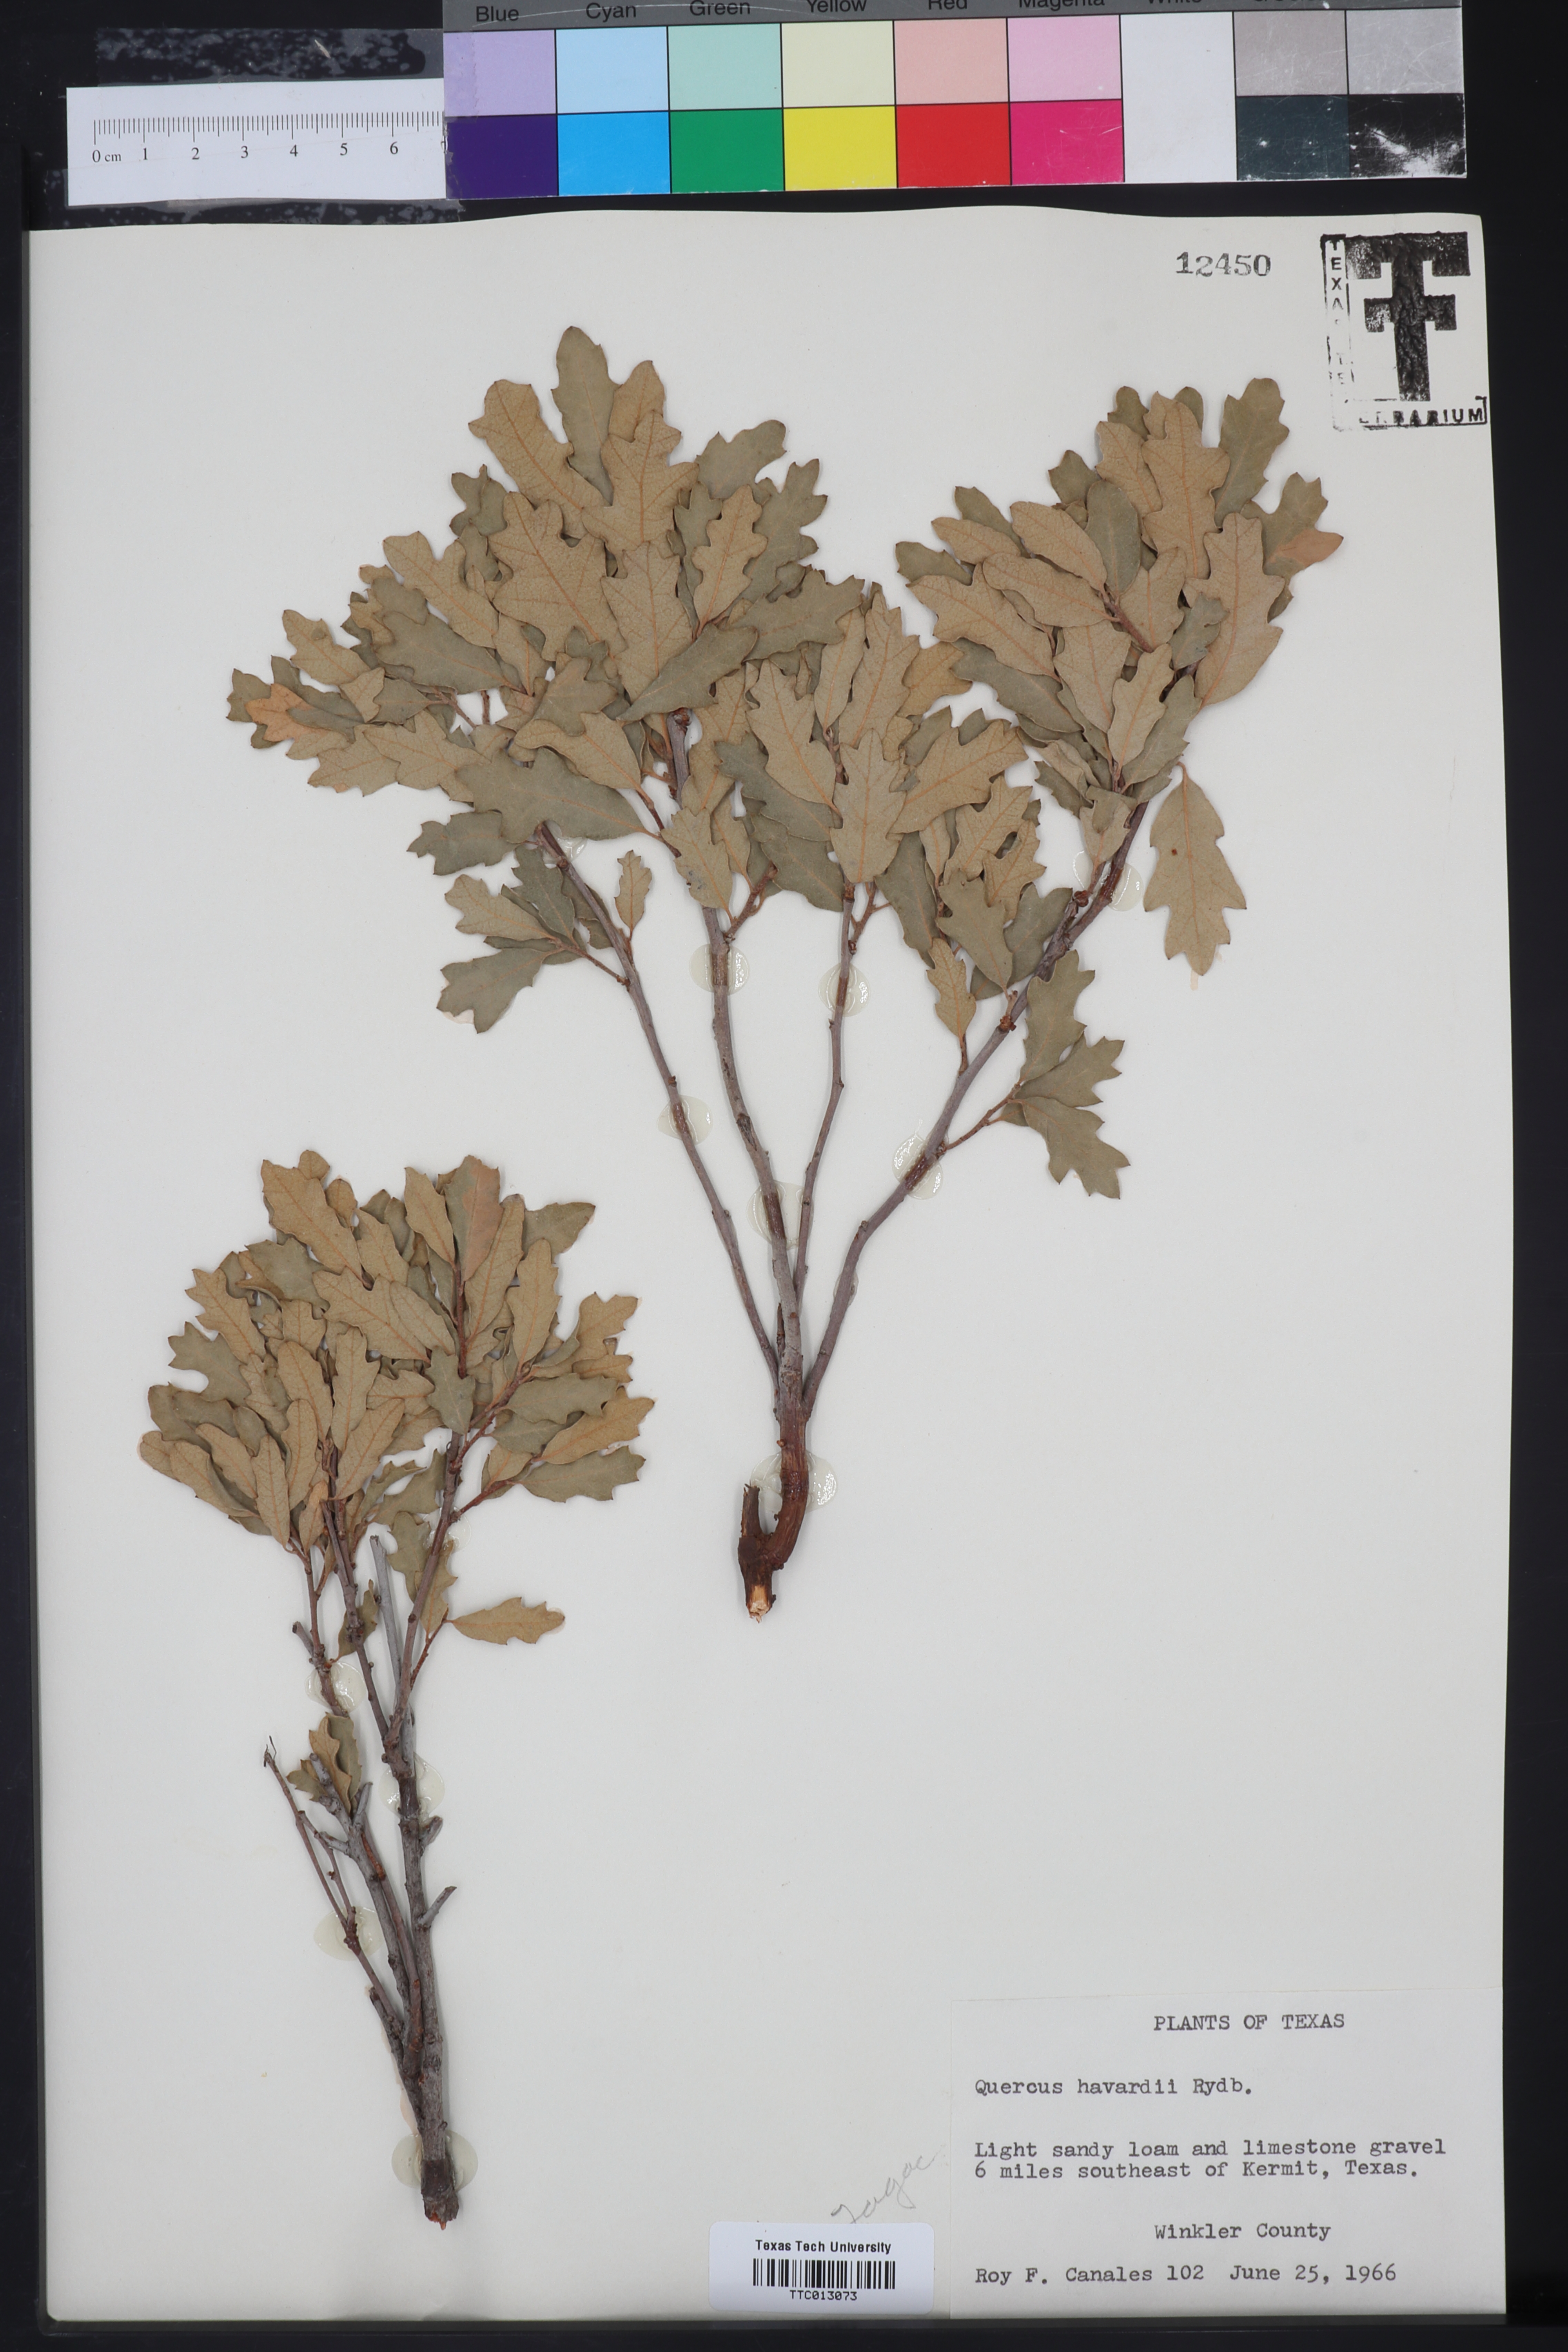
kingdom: Plantae
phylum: Tracheophyta
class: Magnoliopsida
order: Fagales
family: Fagaceae
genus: Quercus
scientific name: Quercus havardii
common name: Shinnery oak
